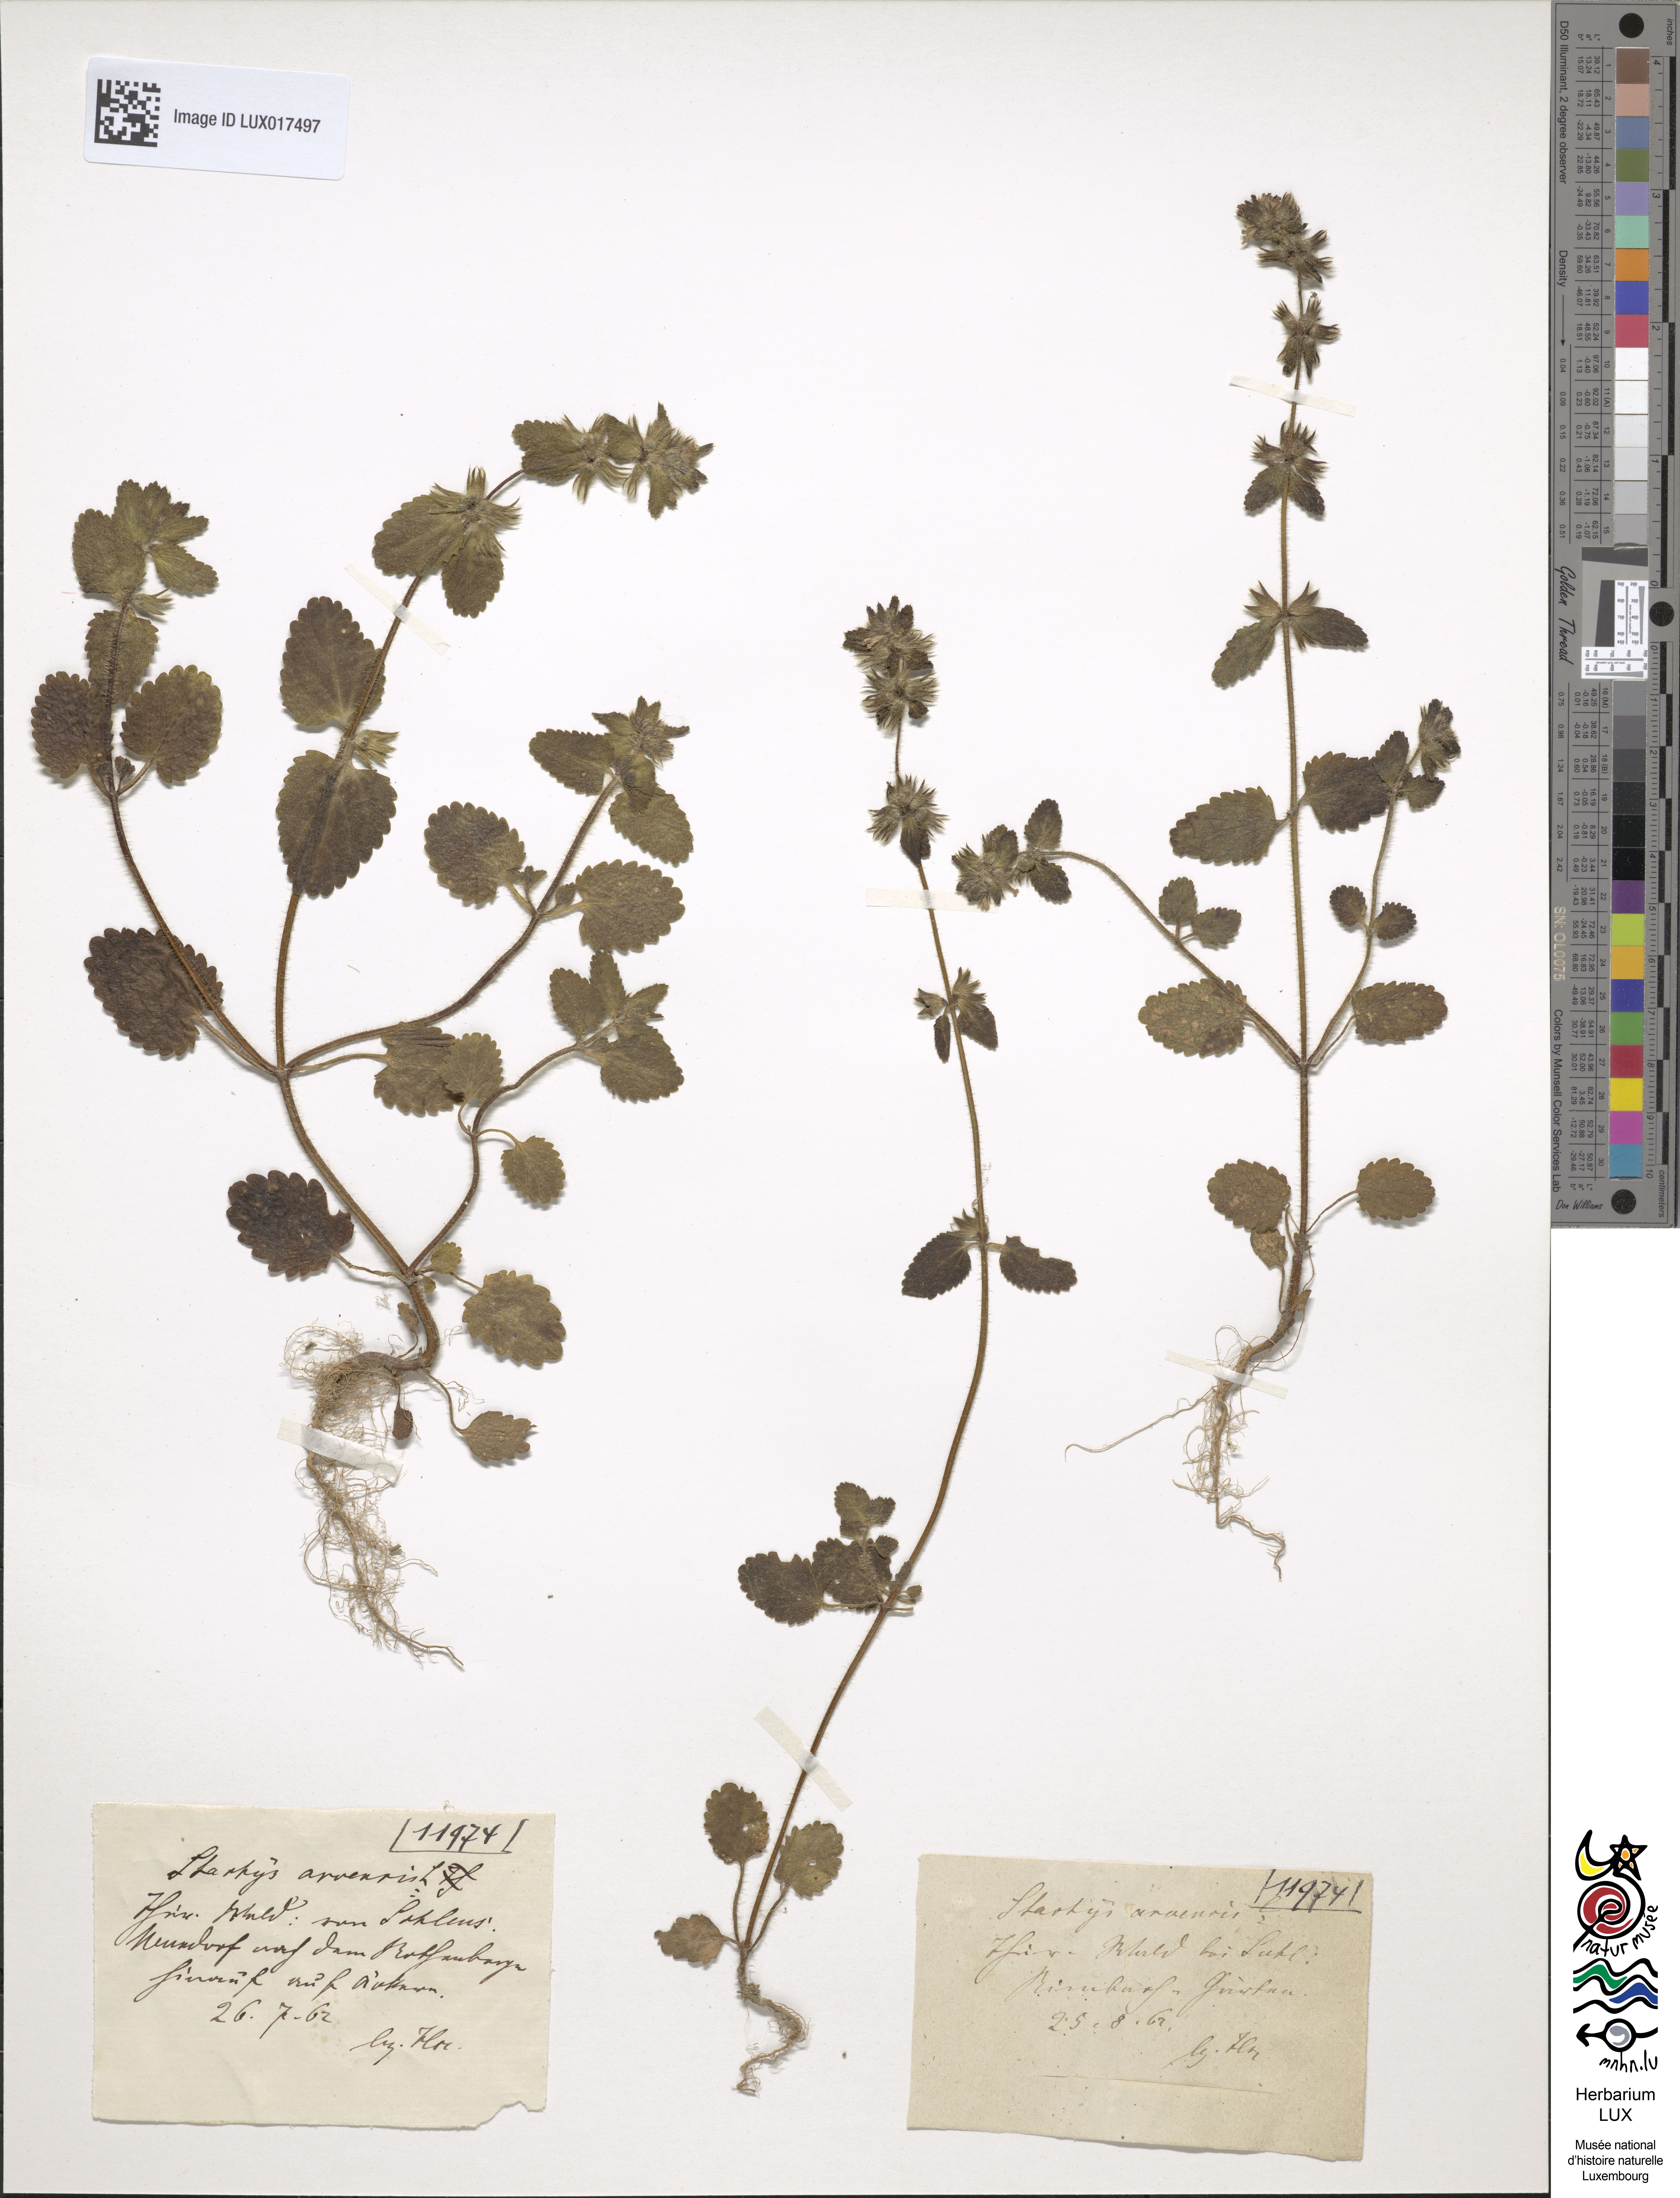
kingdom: Plantae
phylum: Tracheophyta
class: Magnoliopsida
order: Lamiales
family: Lamiaceae
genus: Stachys
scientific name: Stachys arvensis
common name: Field woundwort
